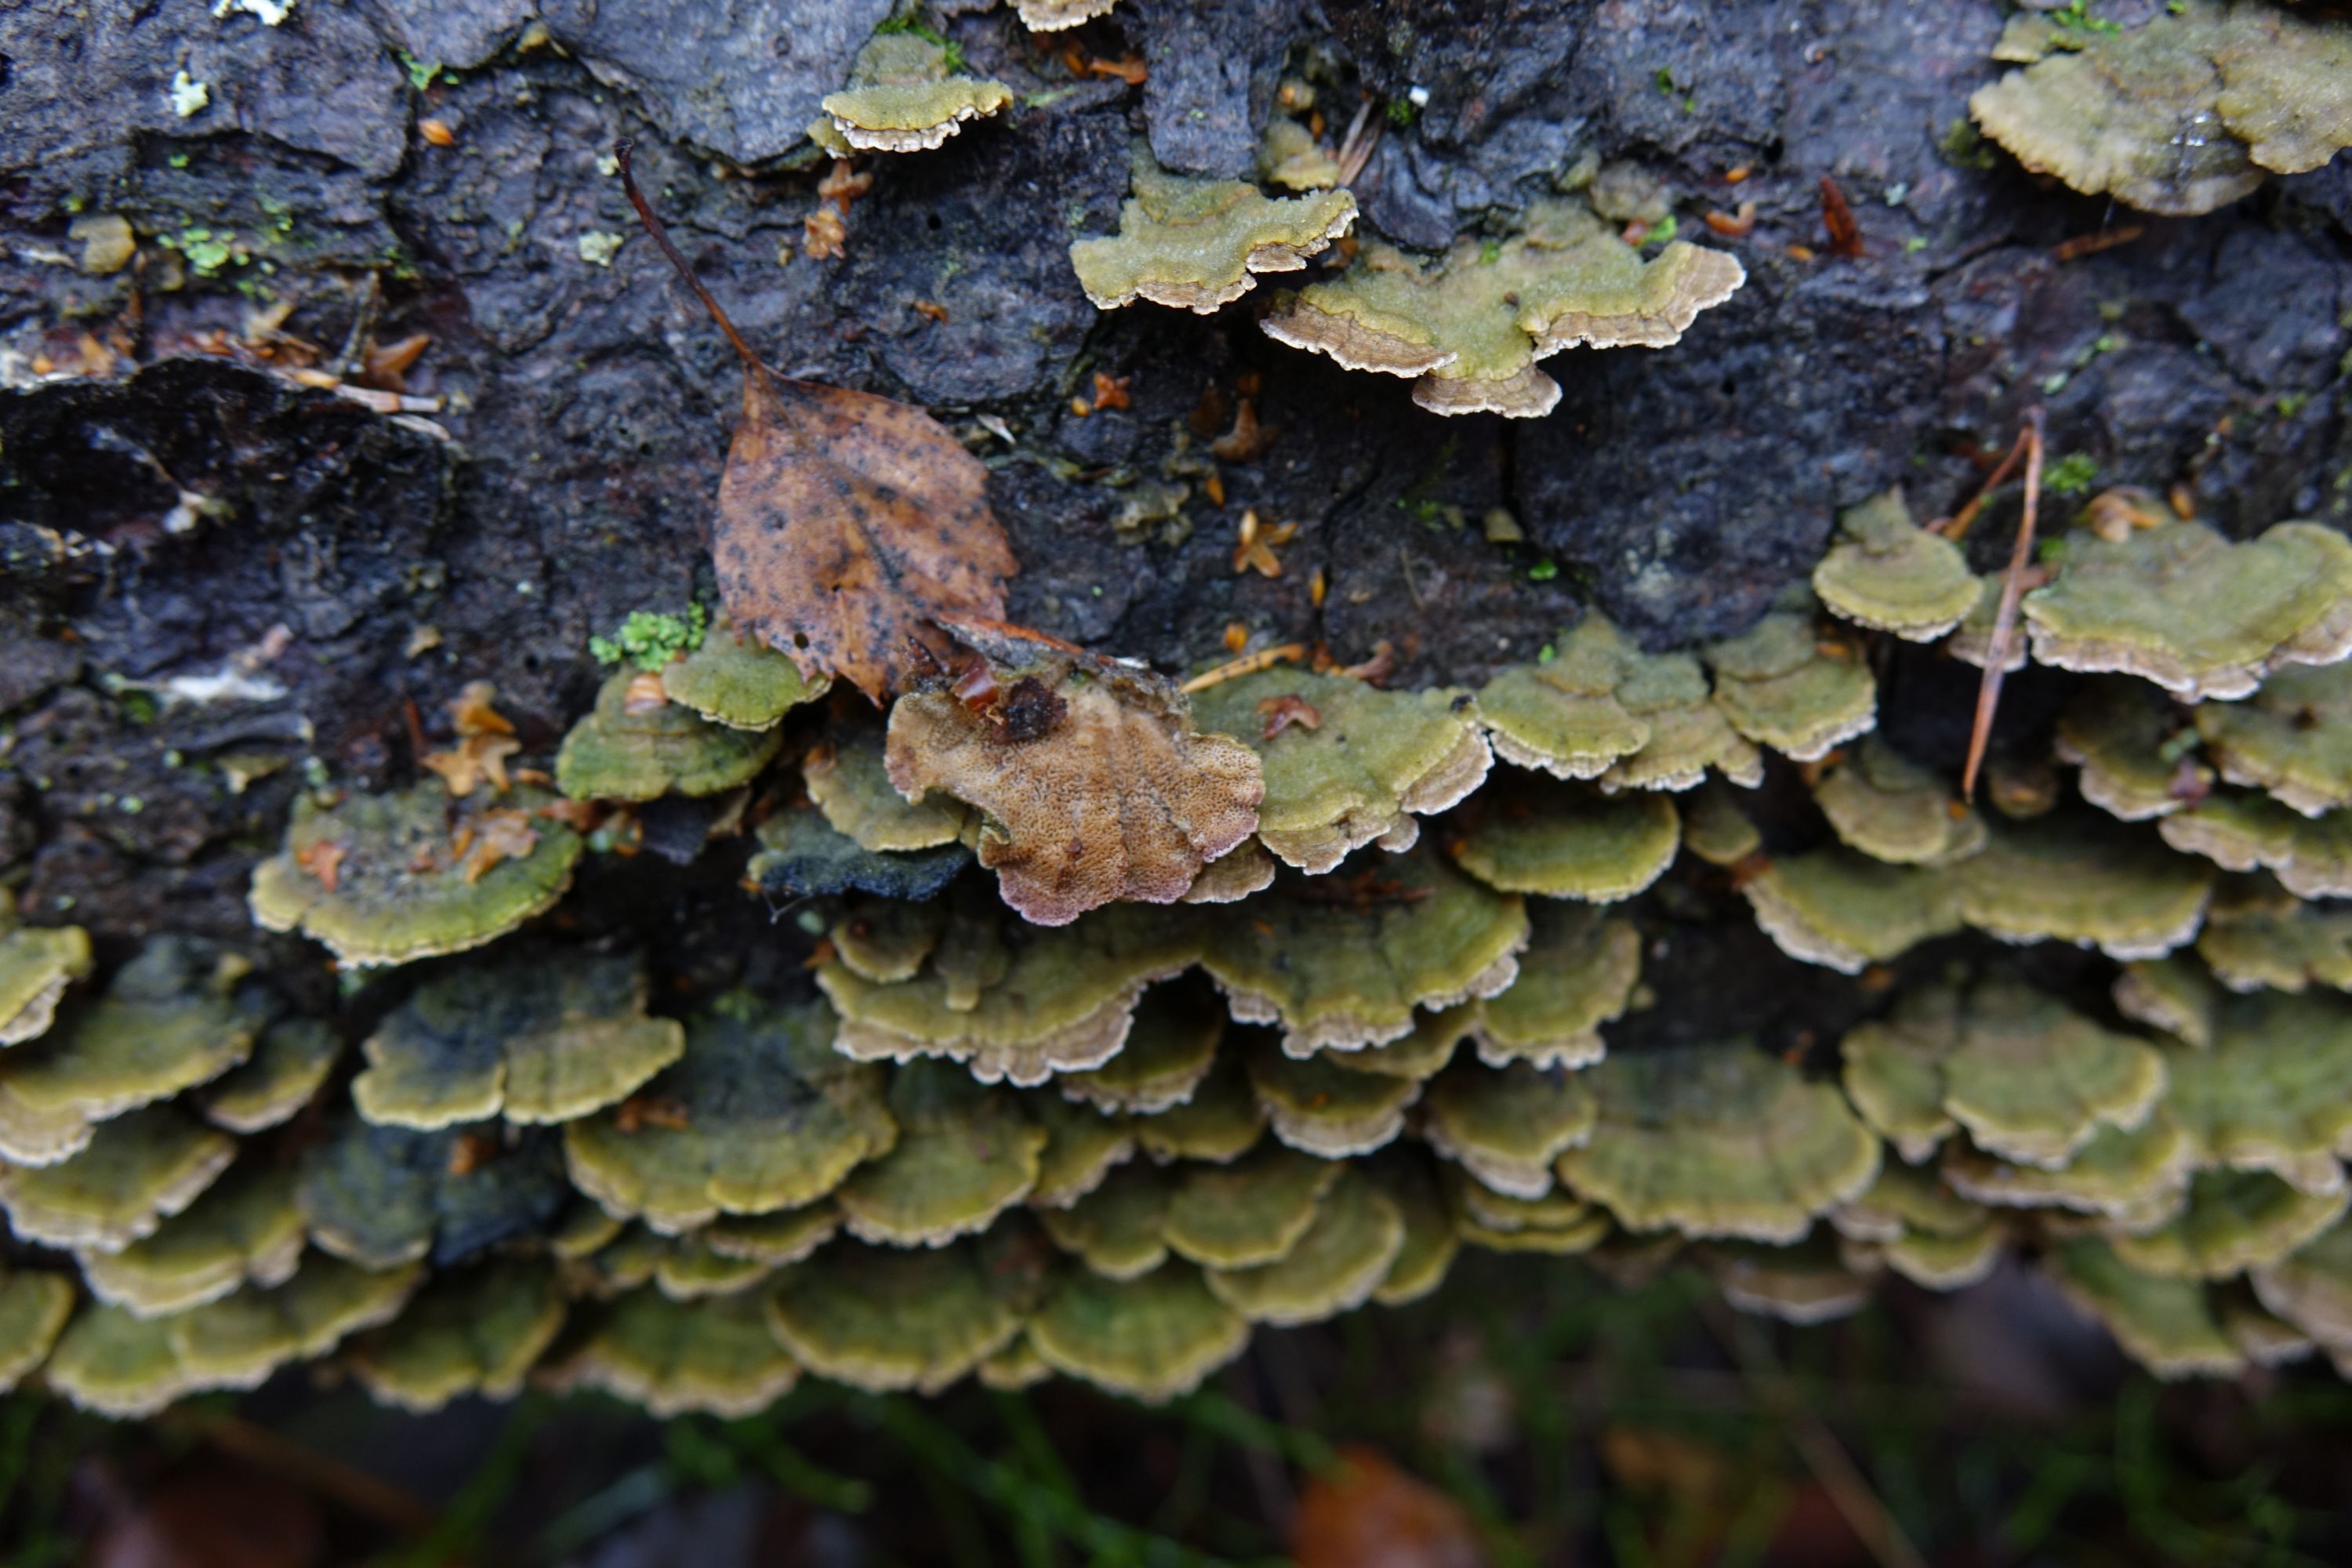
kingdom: Fungi
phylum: Basidiomycota
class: Agaricomycetes
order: Hymenochaetales
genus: Trichaptum
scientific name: Trichaptum abietinum
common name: Purplepore bracket
